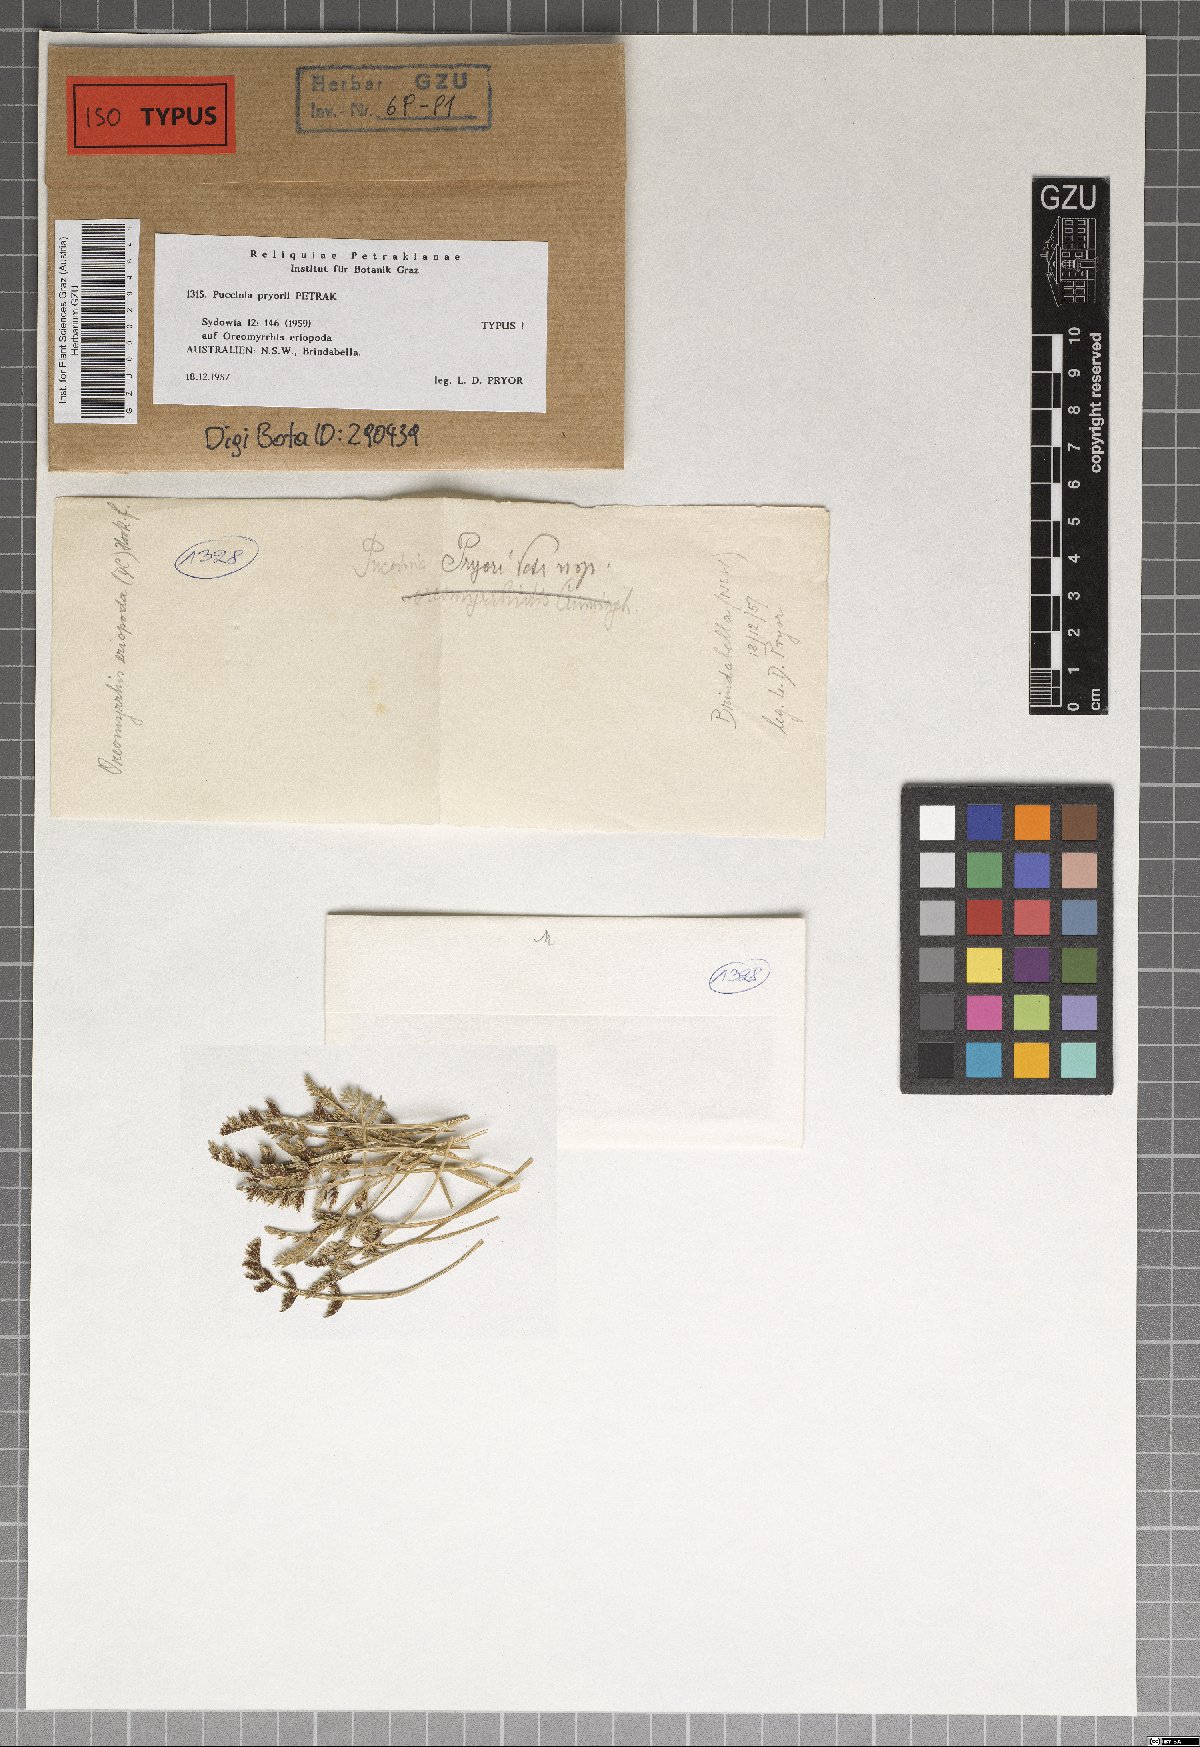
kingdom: Fungi
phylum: Basidiomycota
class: Pucciniomycetes
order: Pucciniales
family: Pucciniaceae
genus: Puccinia
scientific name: Puccinia pryorii
